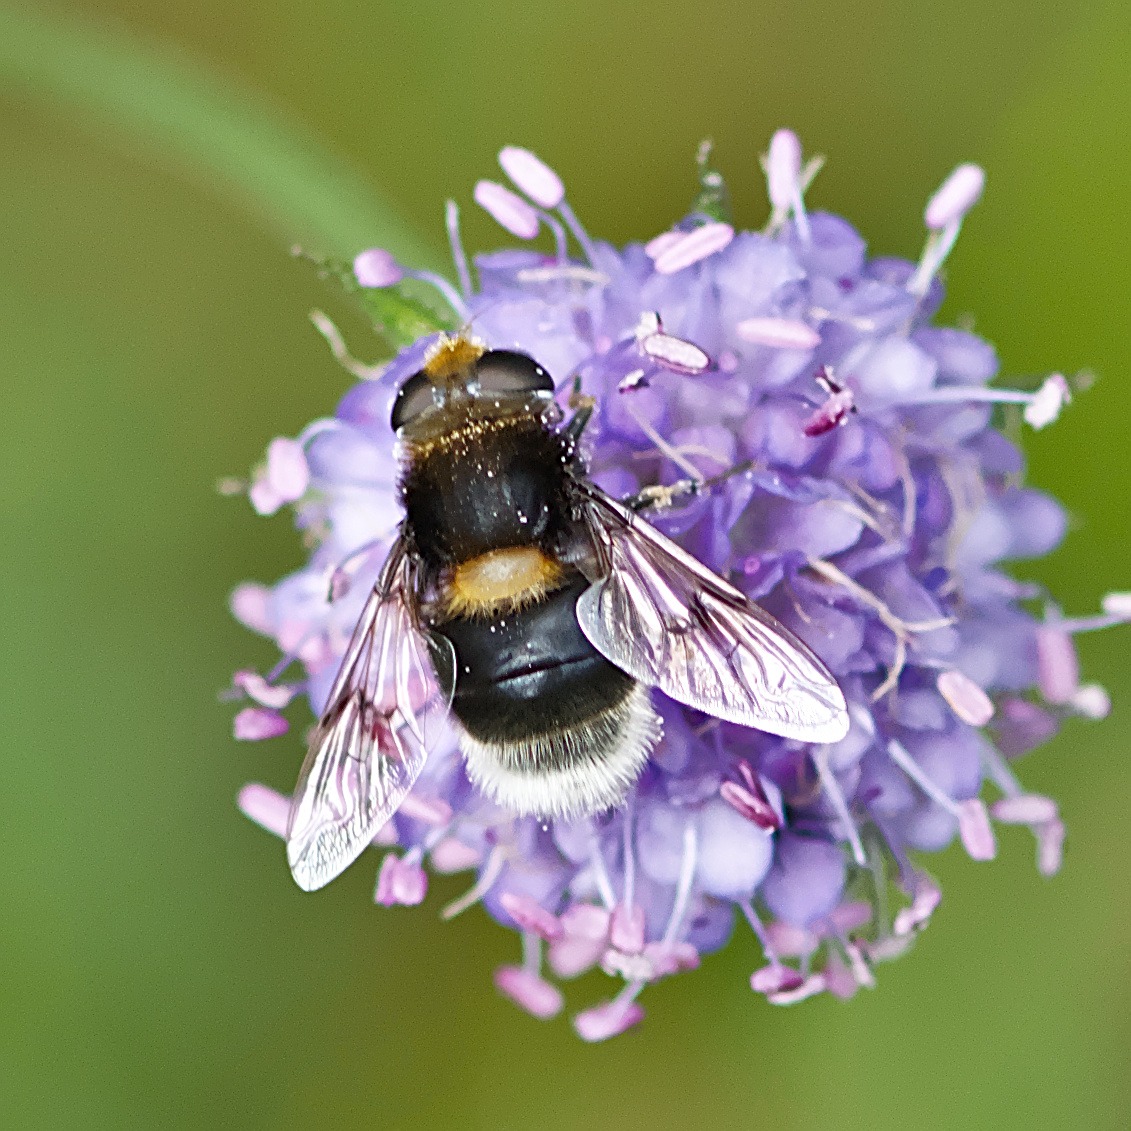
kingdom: Animalia
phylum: Arthropoda
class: Insecta
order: Diptera
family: Syrphidae
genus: Eristalis
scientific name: Eristalis intricaria
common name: Håret dyndflue
